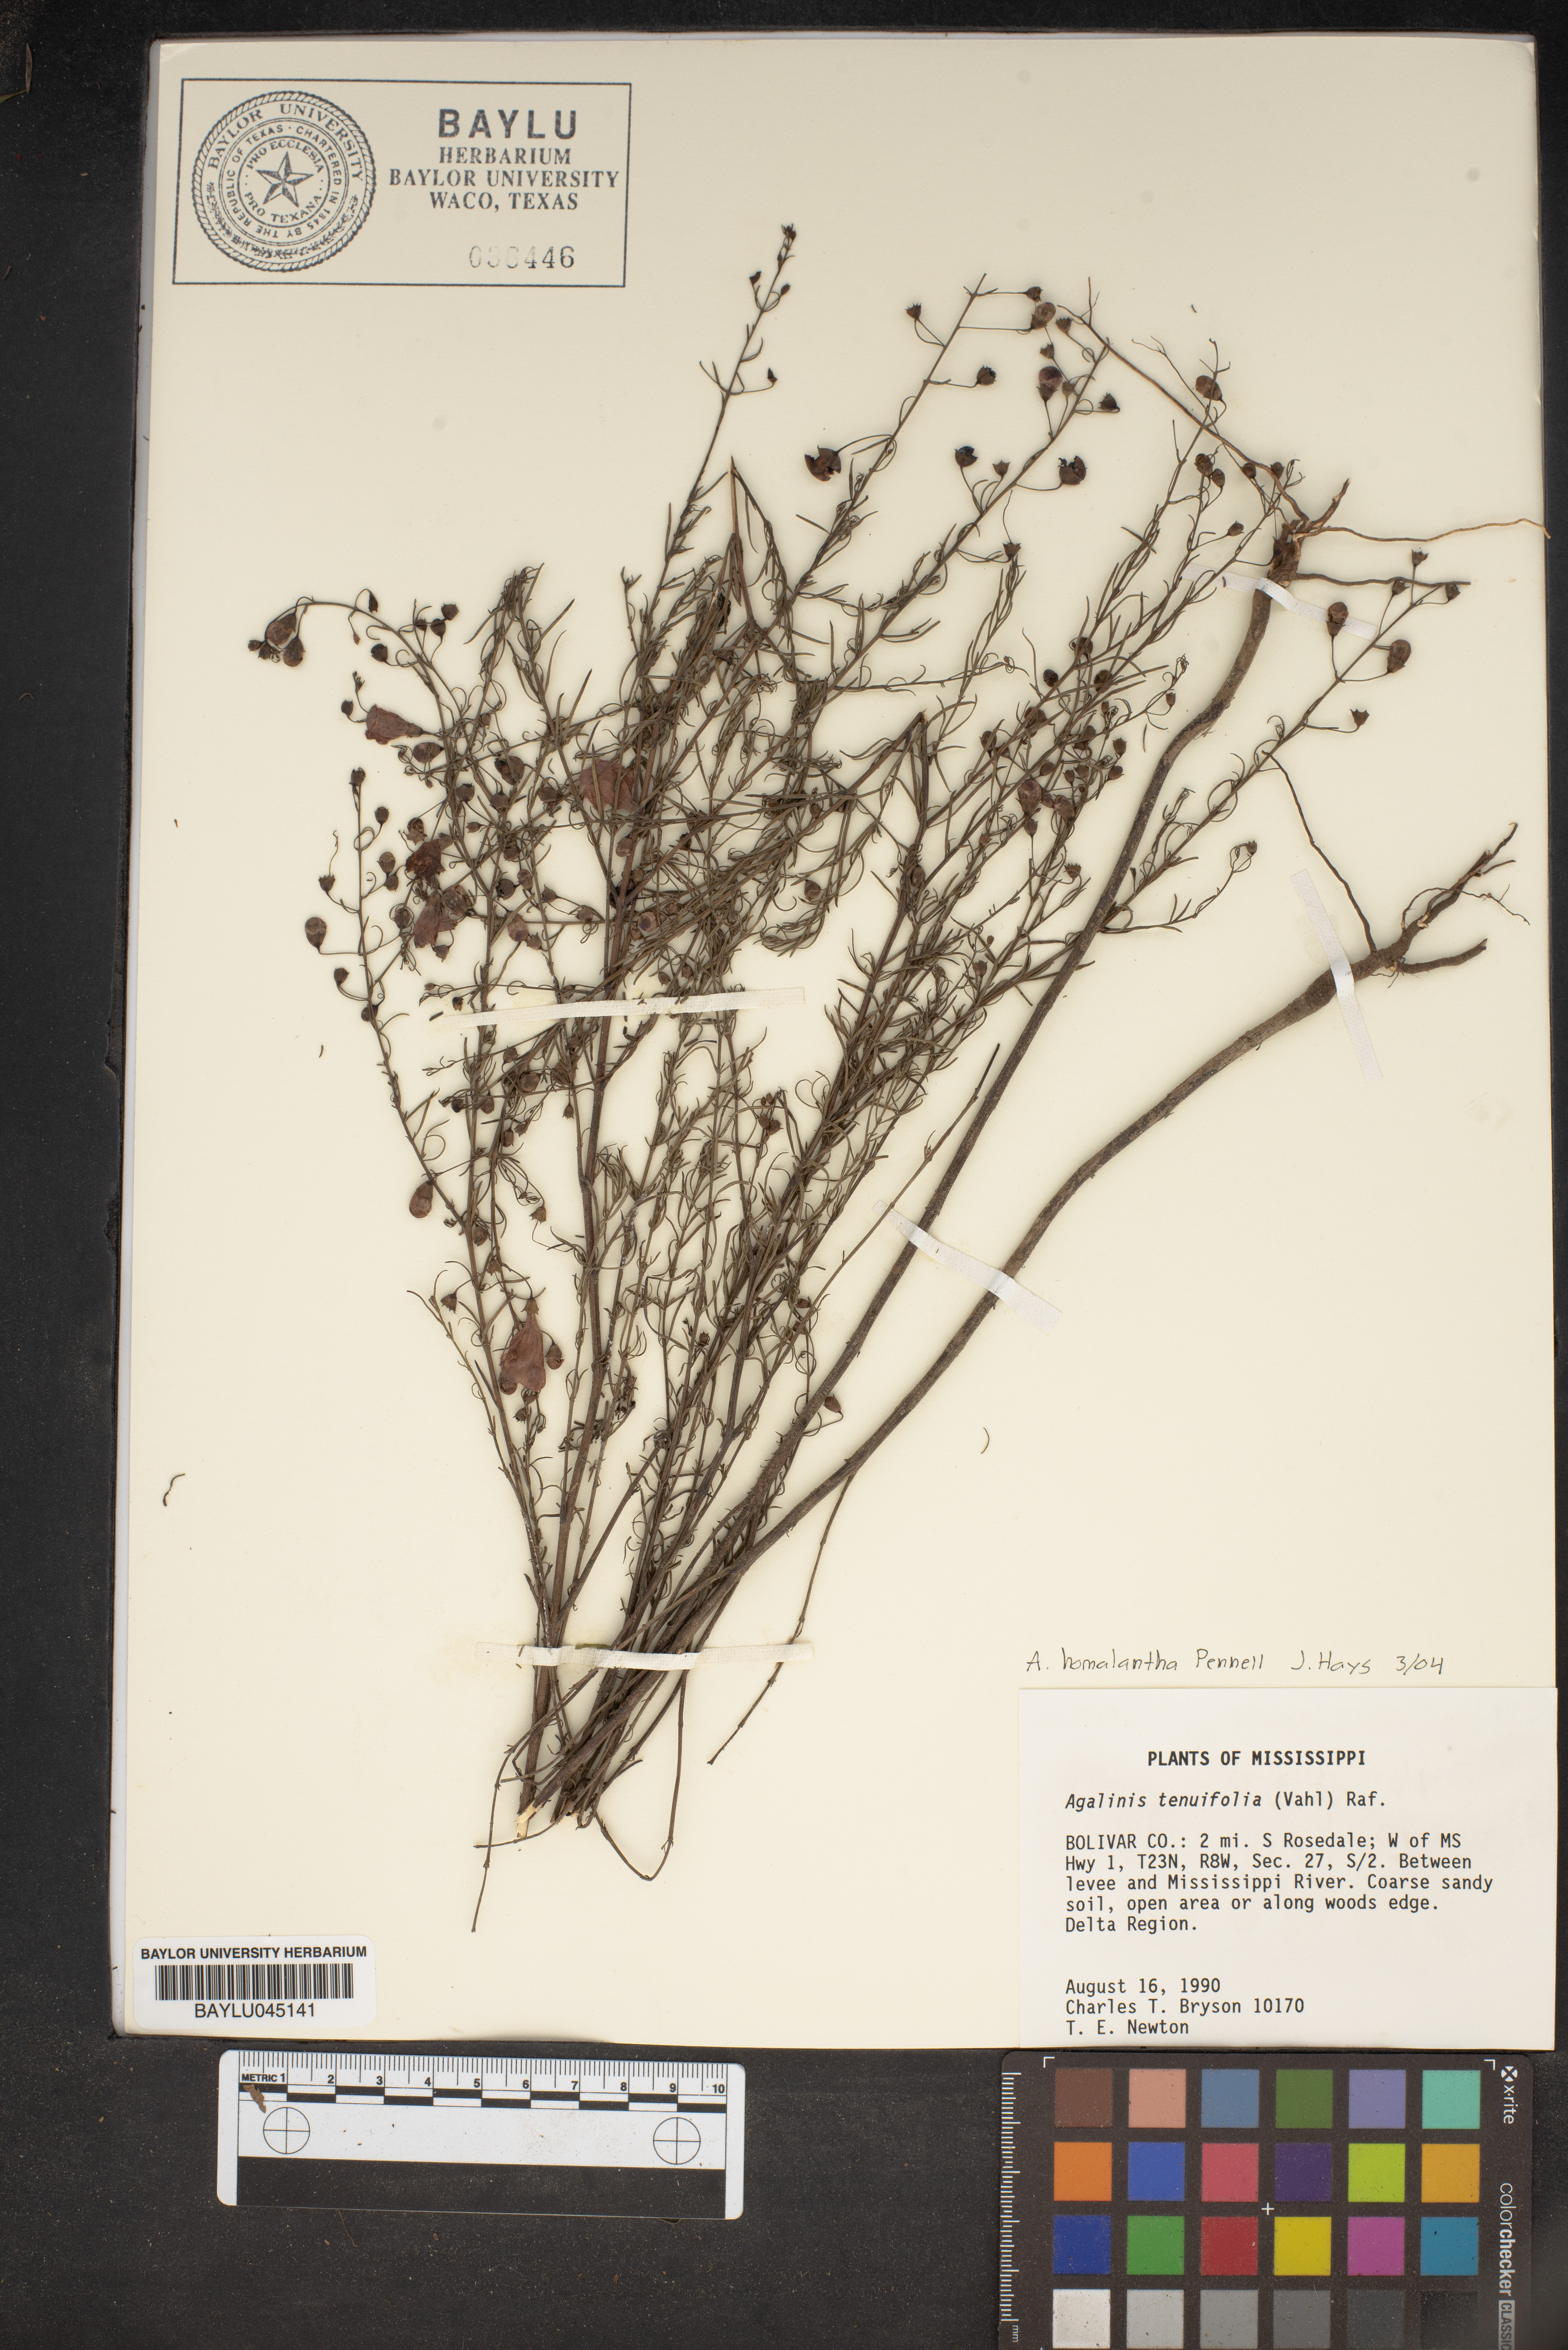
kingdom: Plantae
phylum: Tracheophyta
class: Magnoliopsida
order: Lamiales
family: Orobanchaceae
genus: Agalinis
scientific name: Agalinis homalantha
